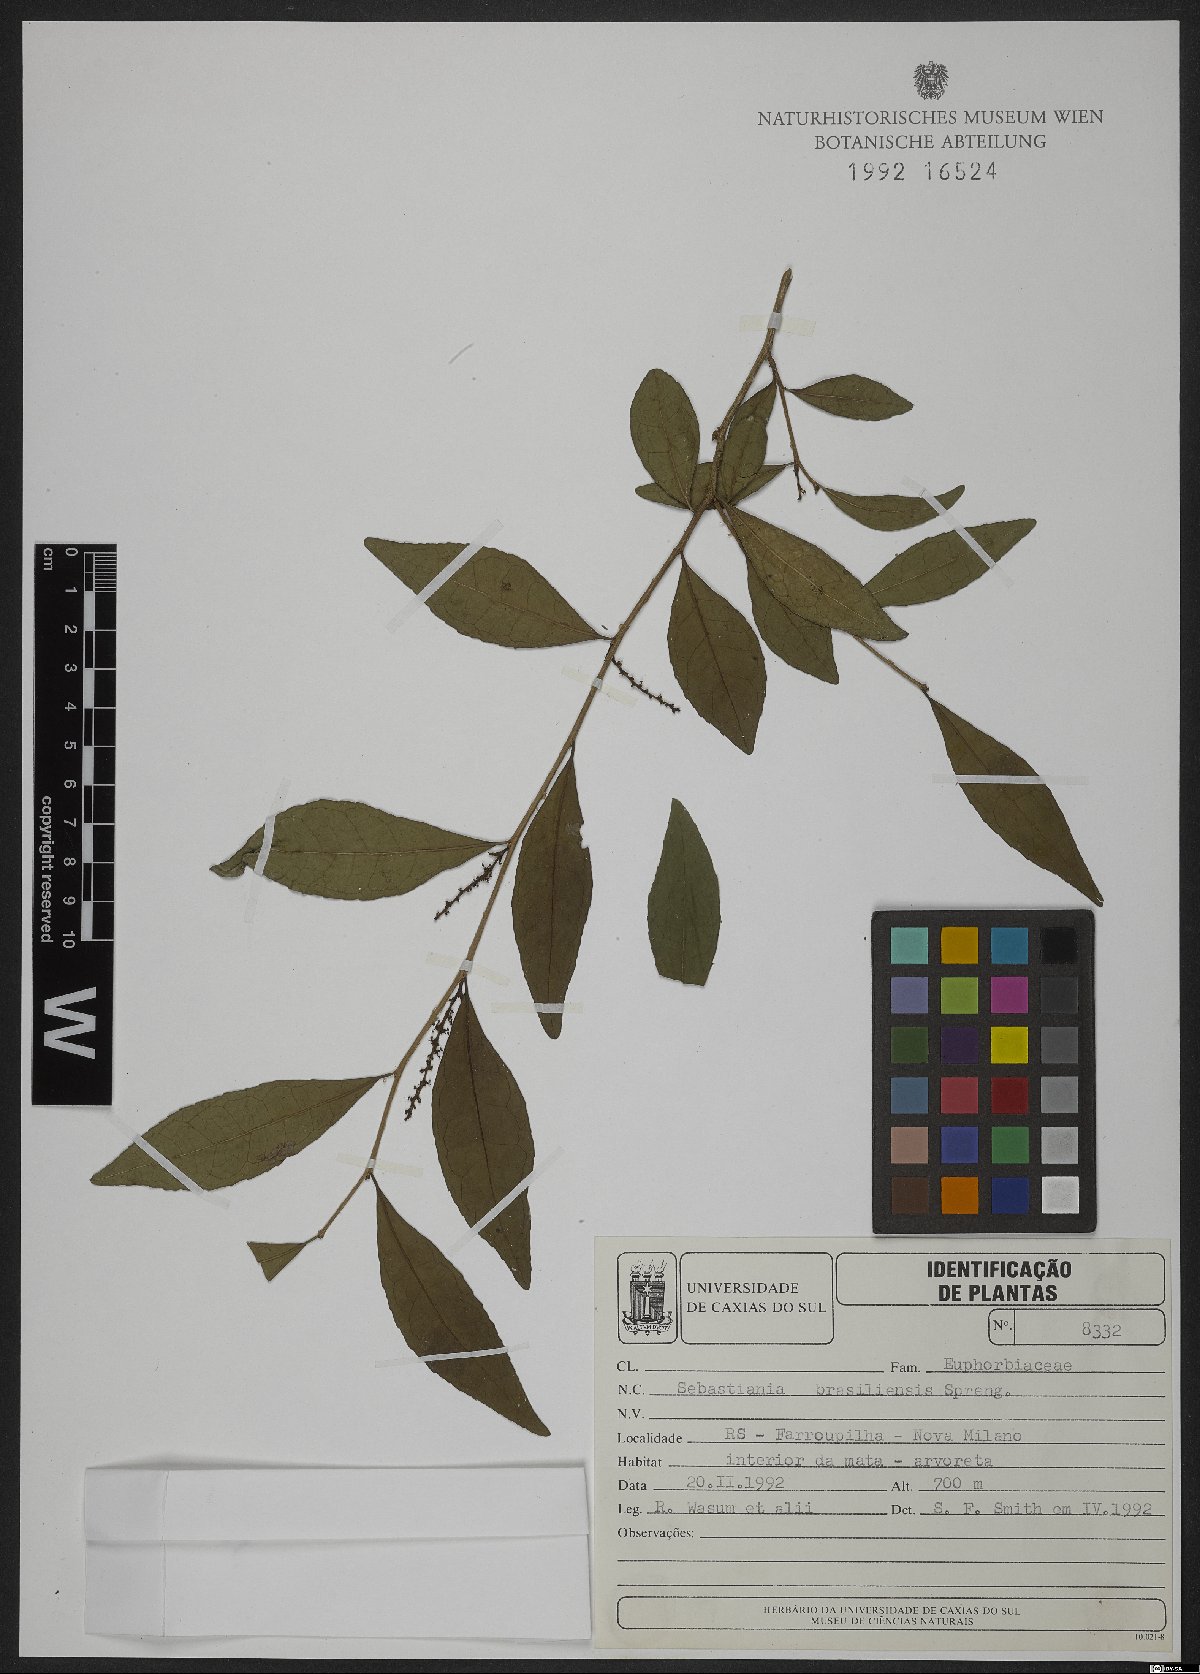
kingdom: Plantae
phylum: Tracheophyta
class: Magnoliopsida
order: Malpighiales
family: Euphorbiaceae
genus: Sebastiania
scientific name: Sebastiania brasiliensis
